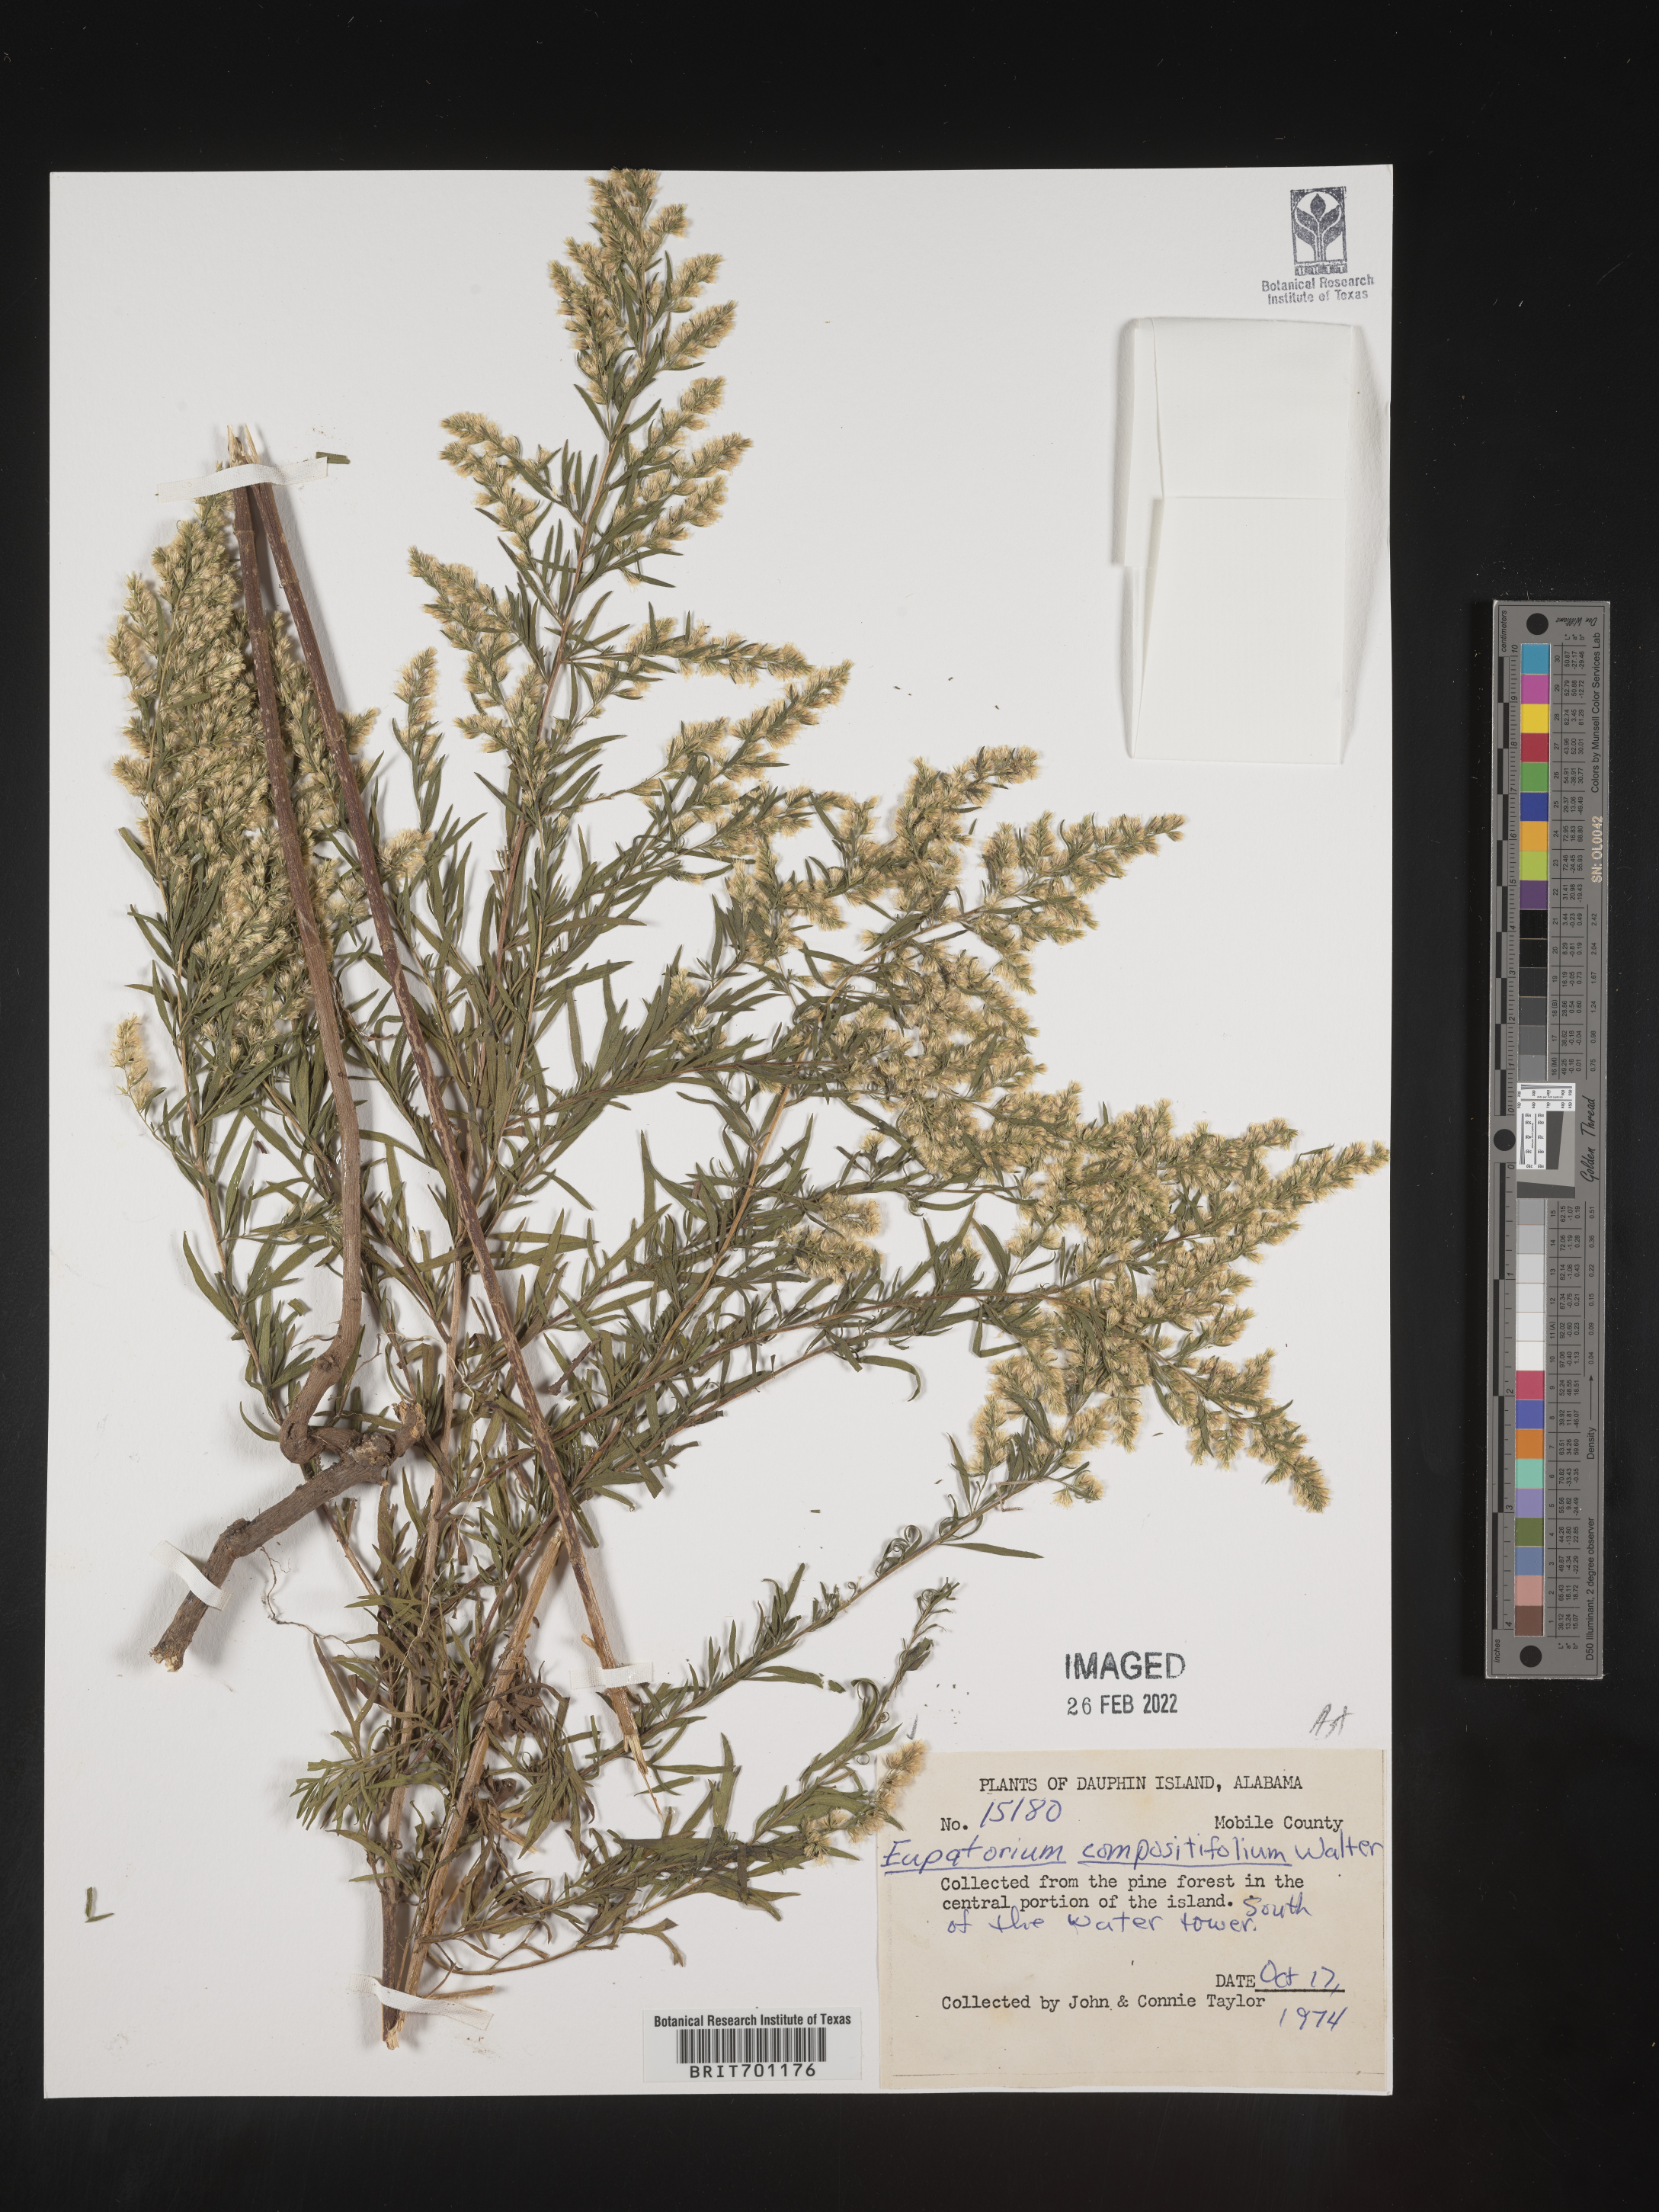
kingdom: Plantae
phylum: Tracheophyta
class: Magnoliopsida
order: Asterales
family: Asteraceae
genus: Eupatorium
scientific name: Eupatorium compositifolium
